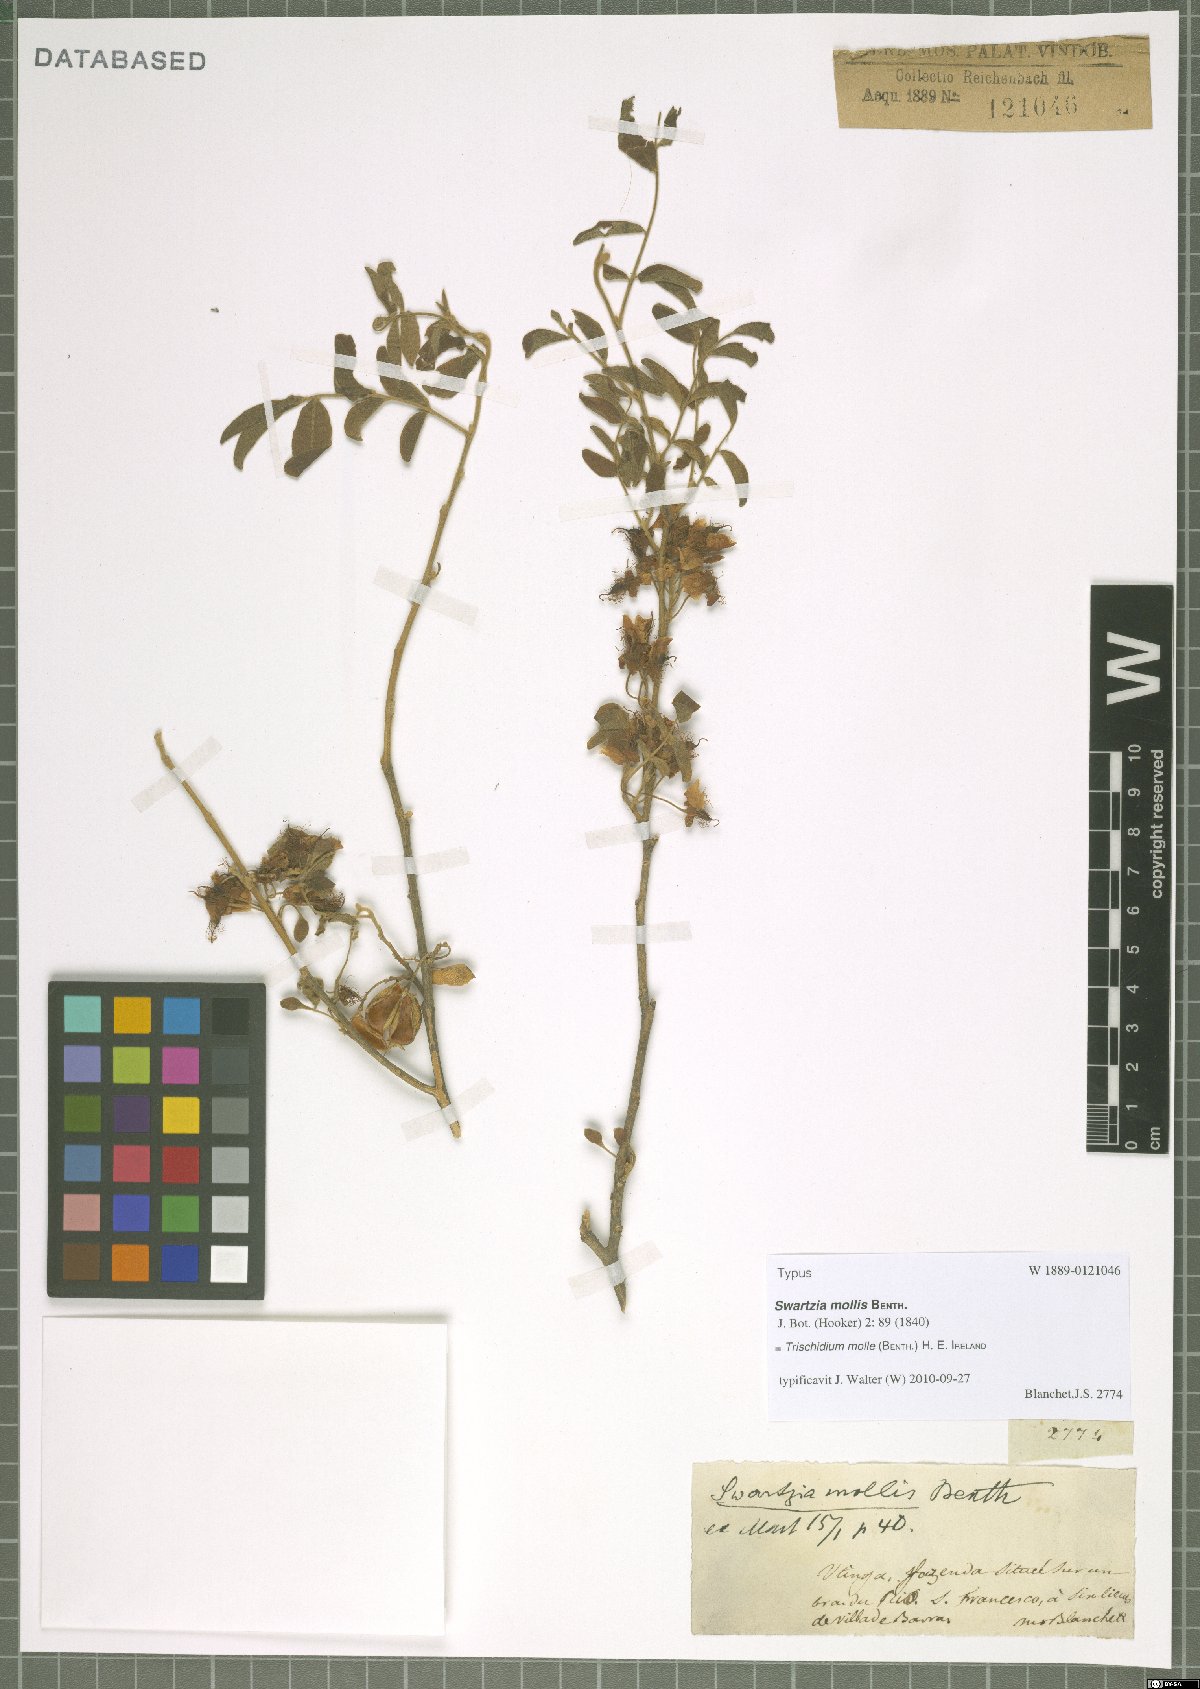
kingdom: Plantae
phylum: Tracheophyta
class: Magnoliopsida
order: Fabales
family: Fabaceae
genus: Trischidium
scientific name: Trischidium molle
